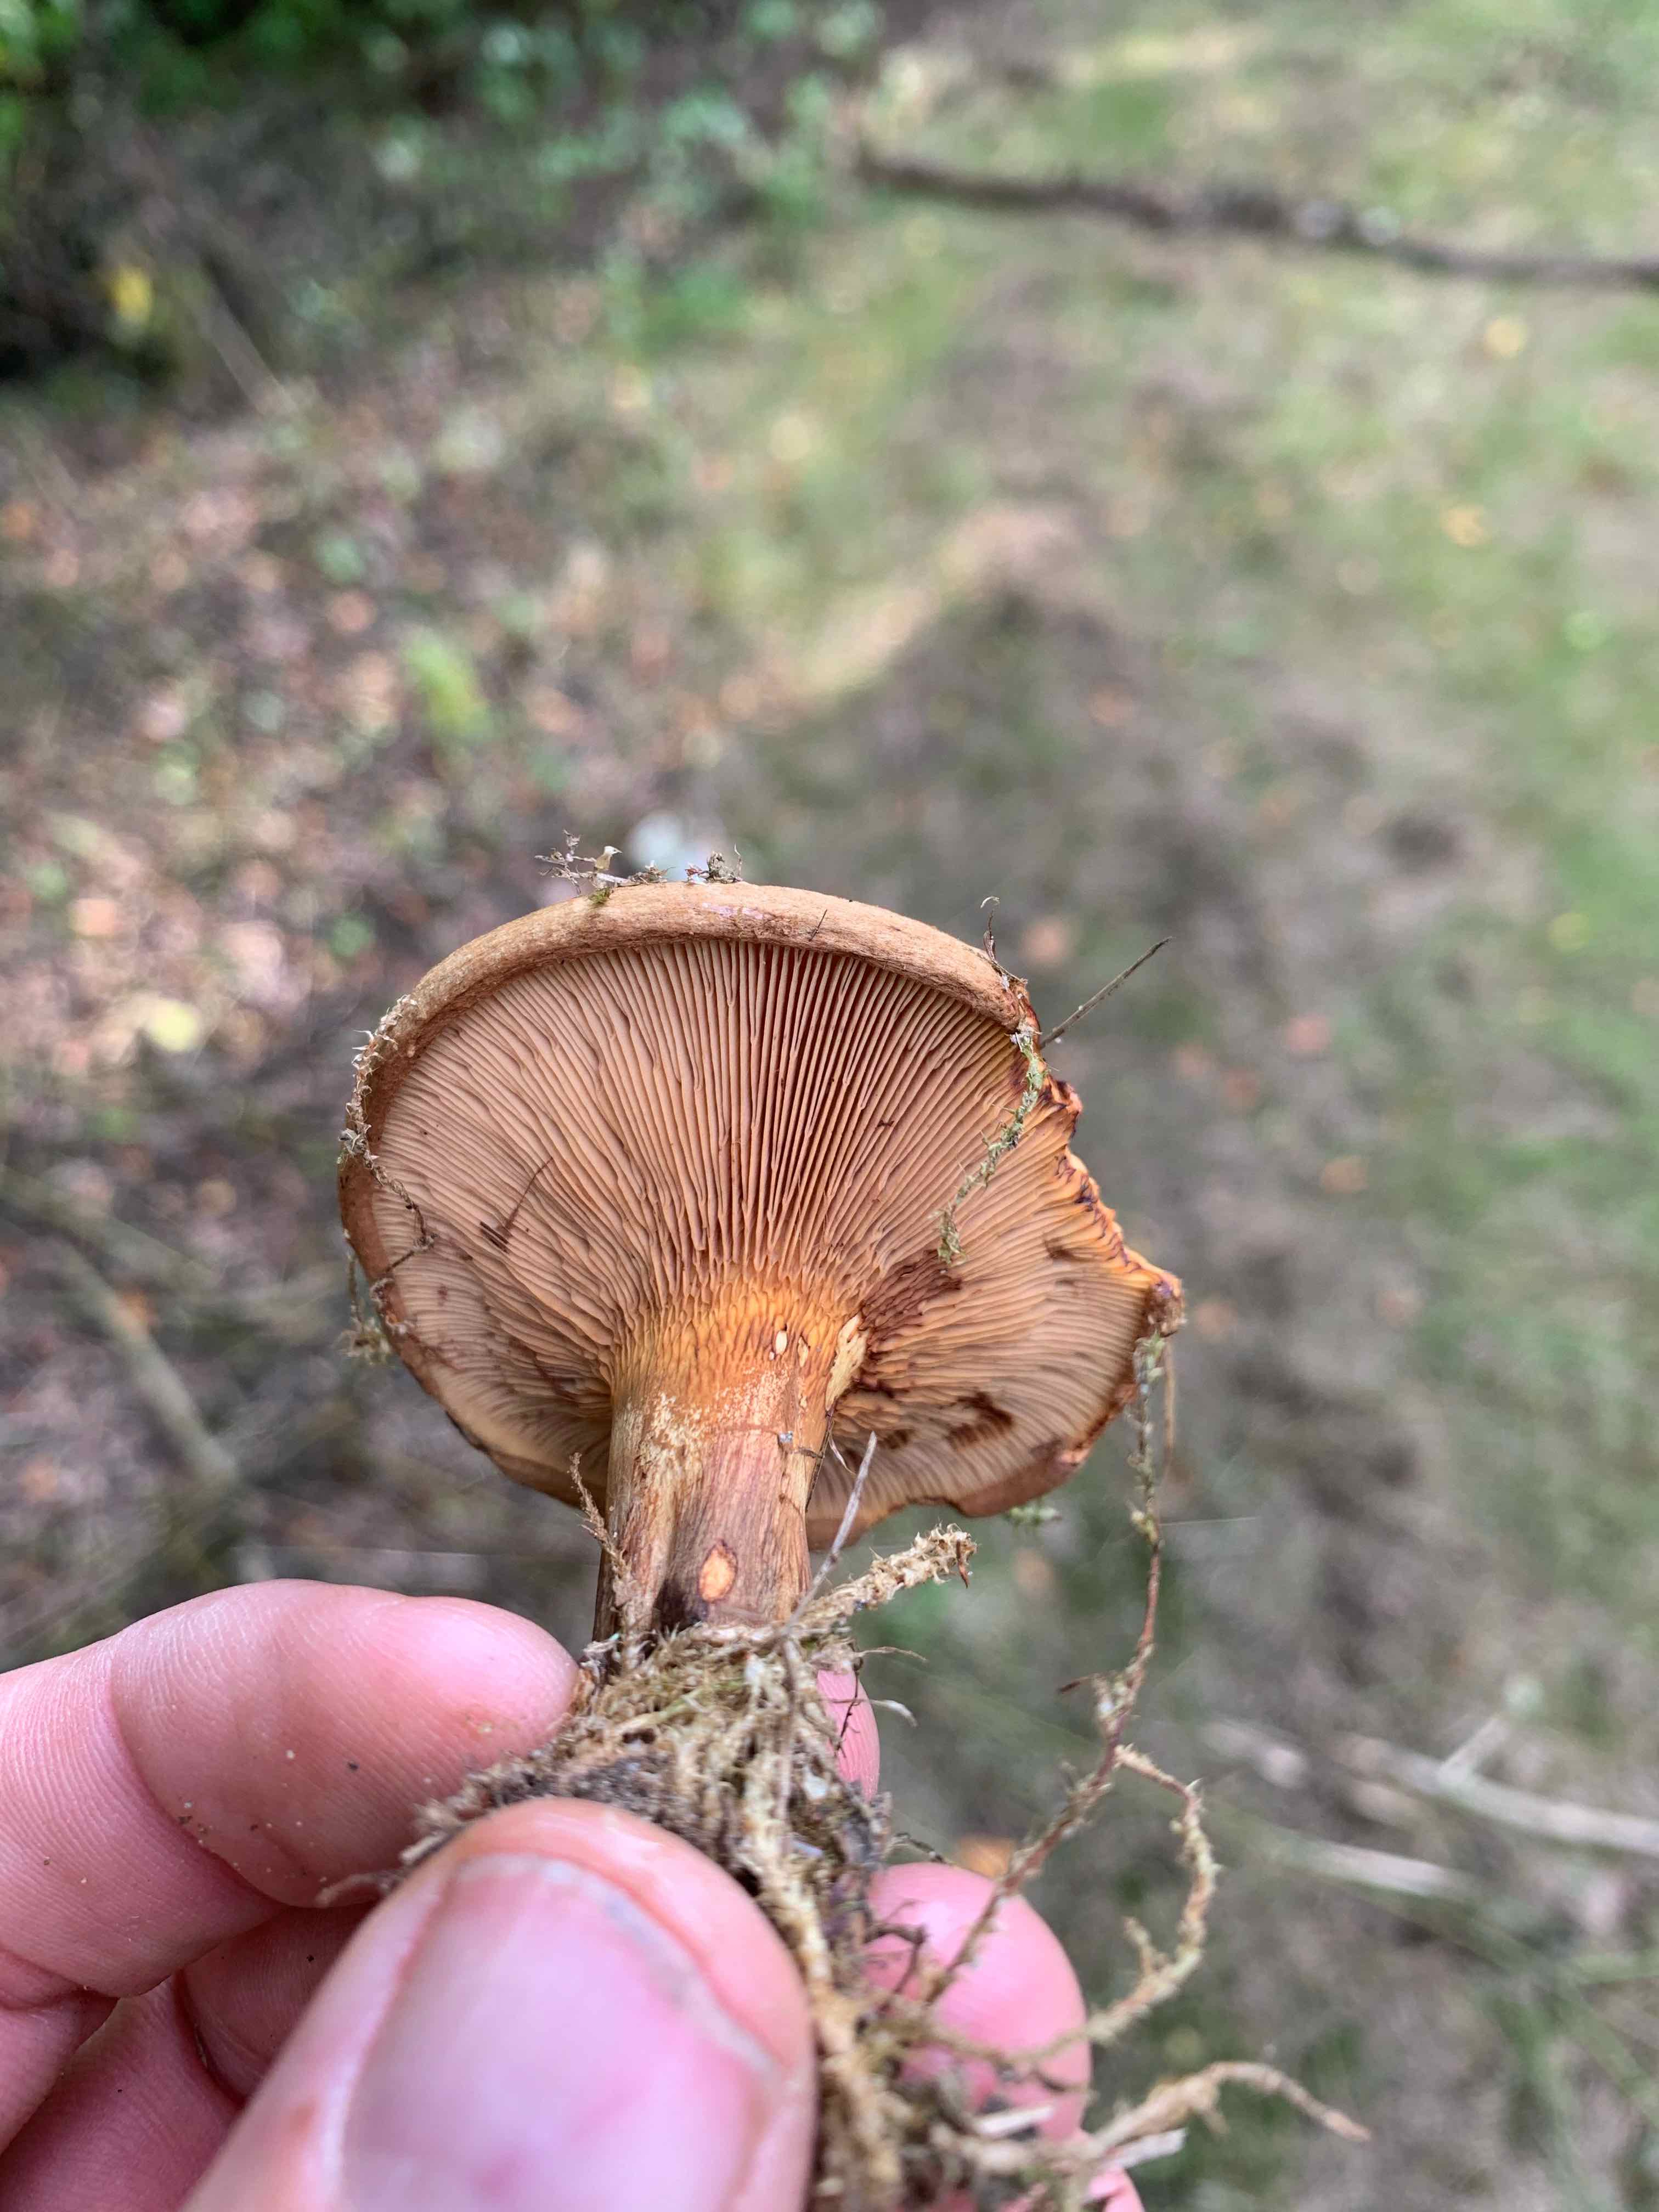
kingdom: Fungi
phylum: Basidiomycota
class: Agaricomycetes
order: Boletales
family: Paxillaceae
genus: Paxillus
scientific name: Paxillus involutus
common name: almindelig netbladhat
